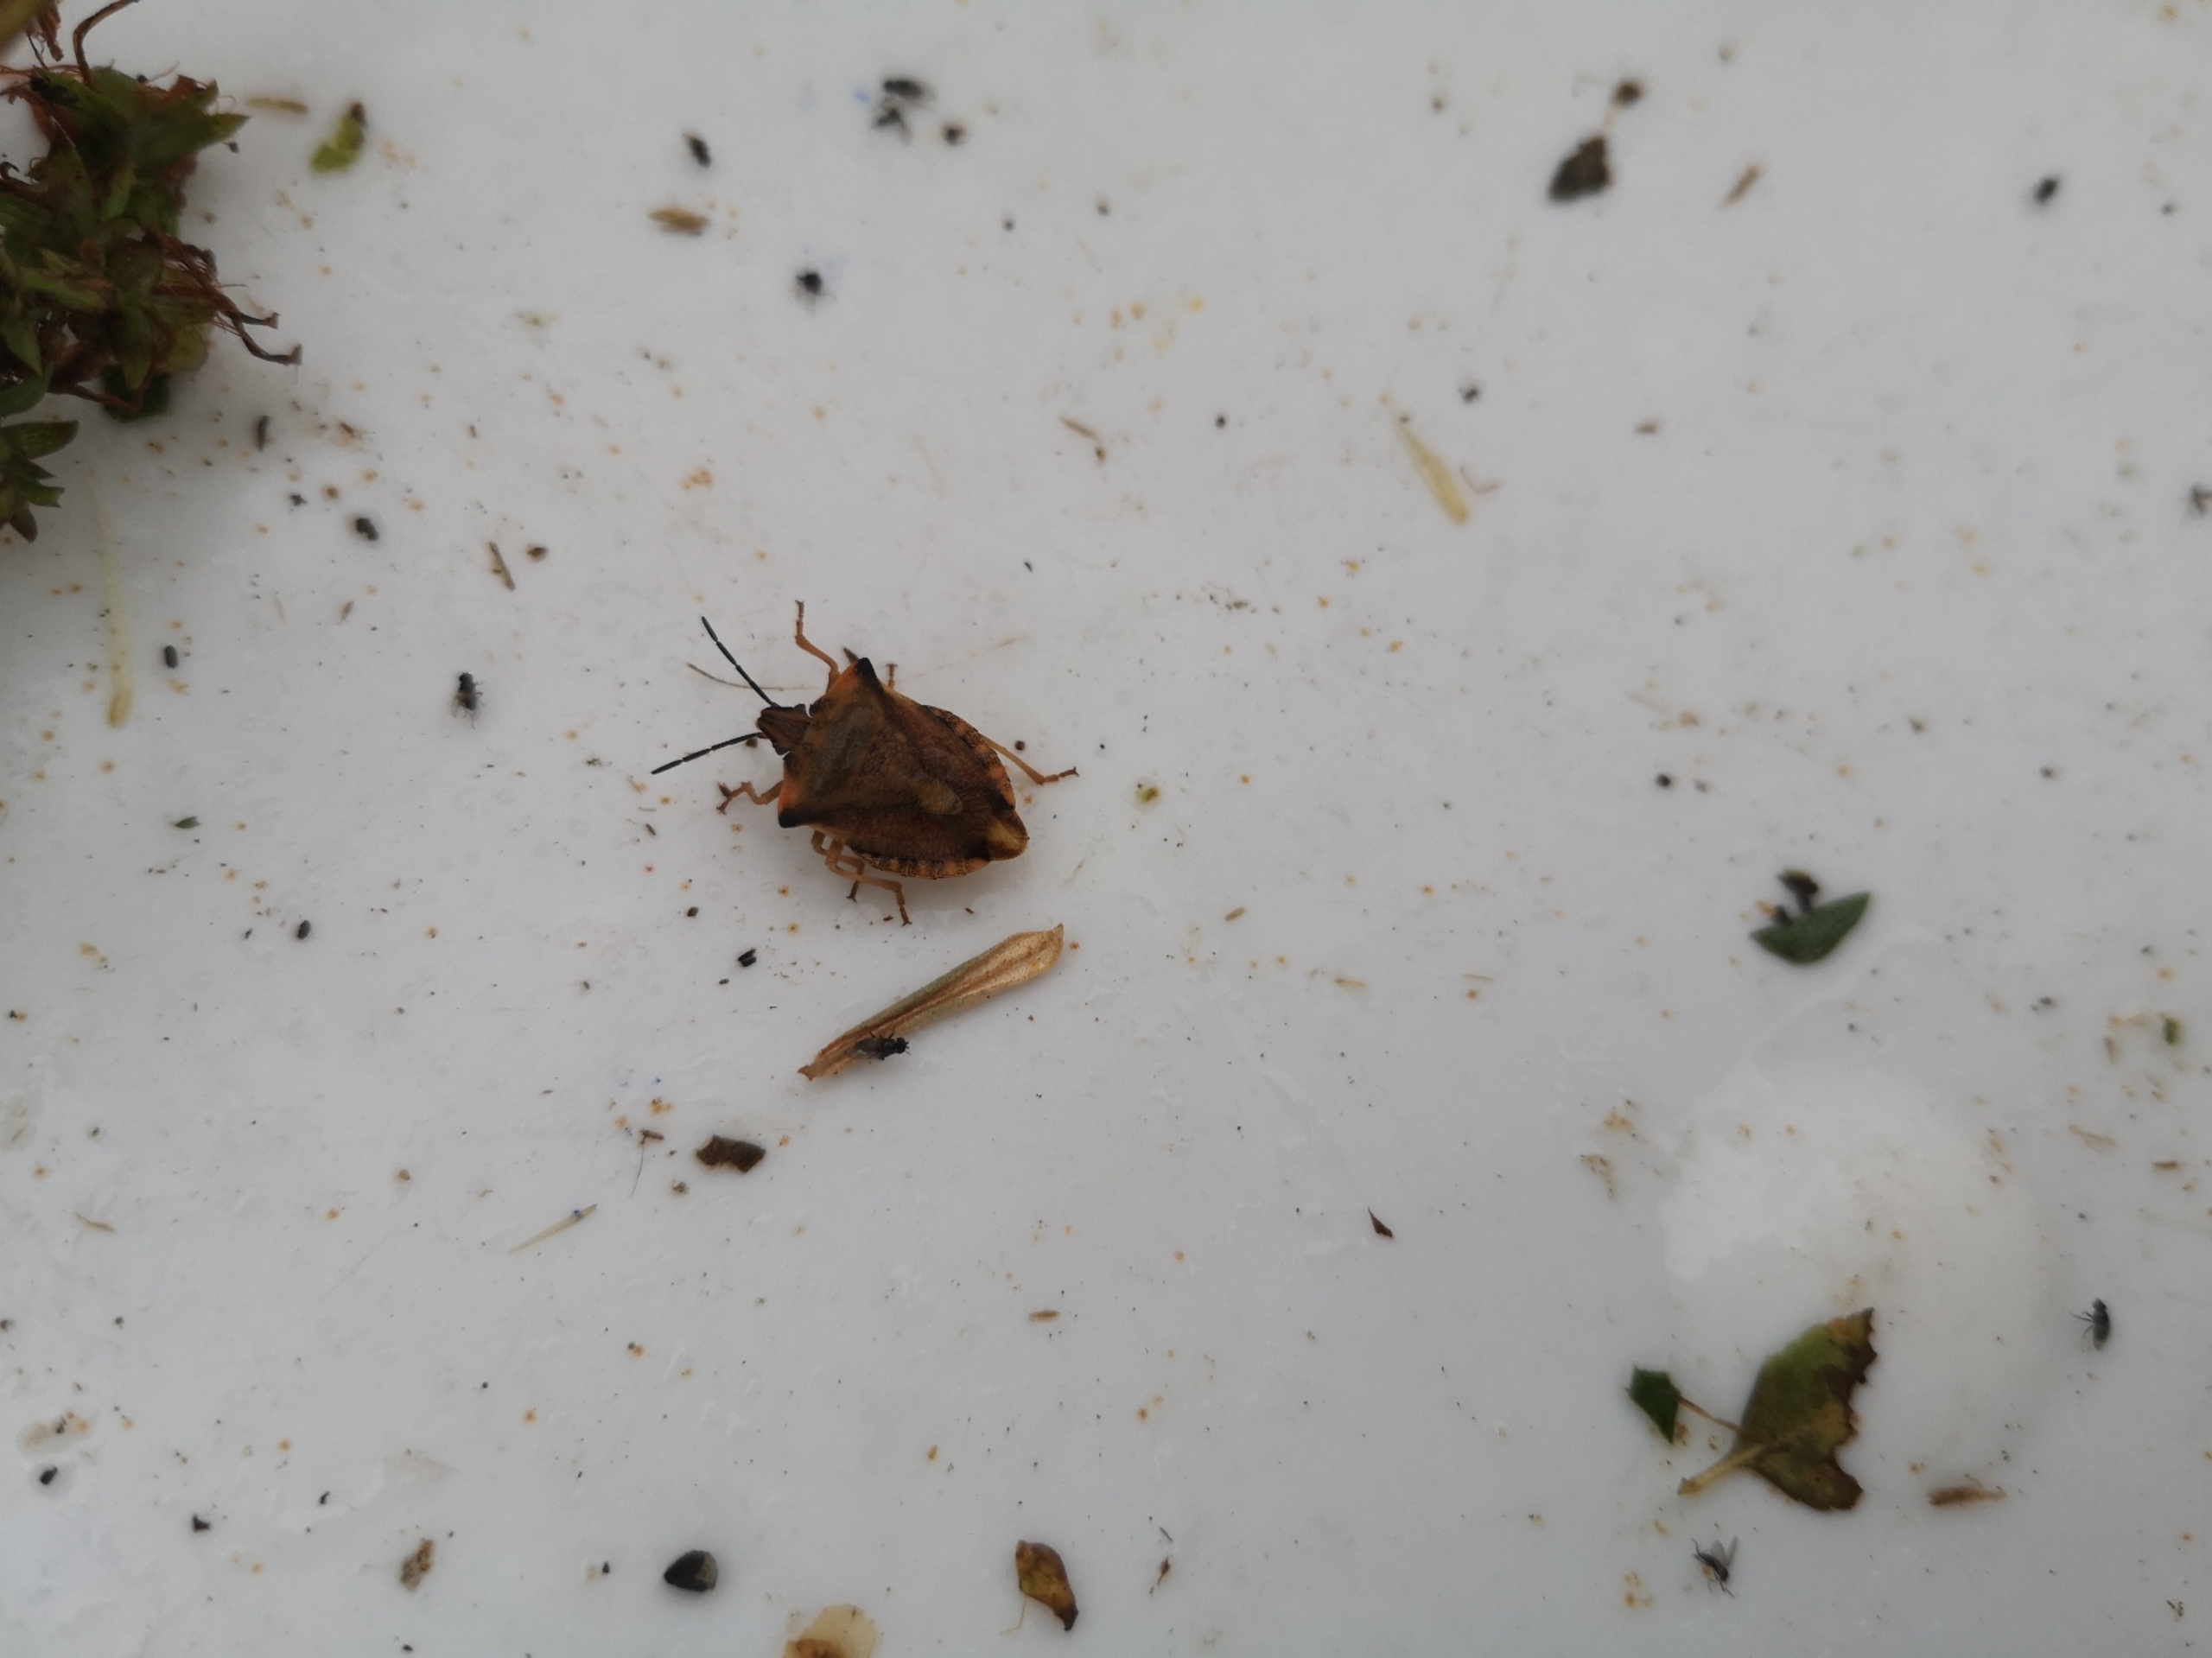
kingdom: Animalia
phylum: Arthropoda
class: Insecta
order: Hemiptera
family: Pentatomidae
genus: Carpocoris
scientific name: Carpocoris fuscispinus
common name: Glat bredtæge
